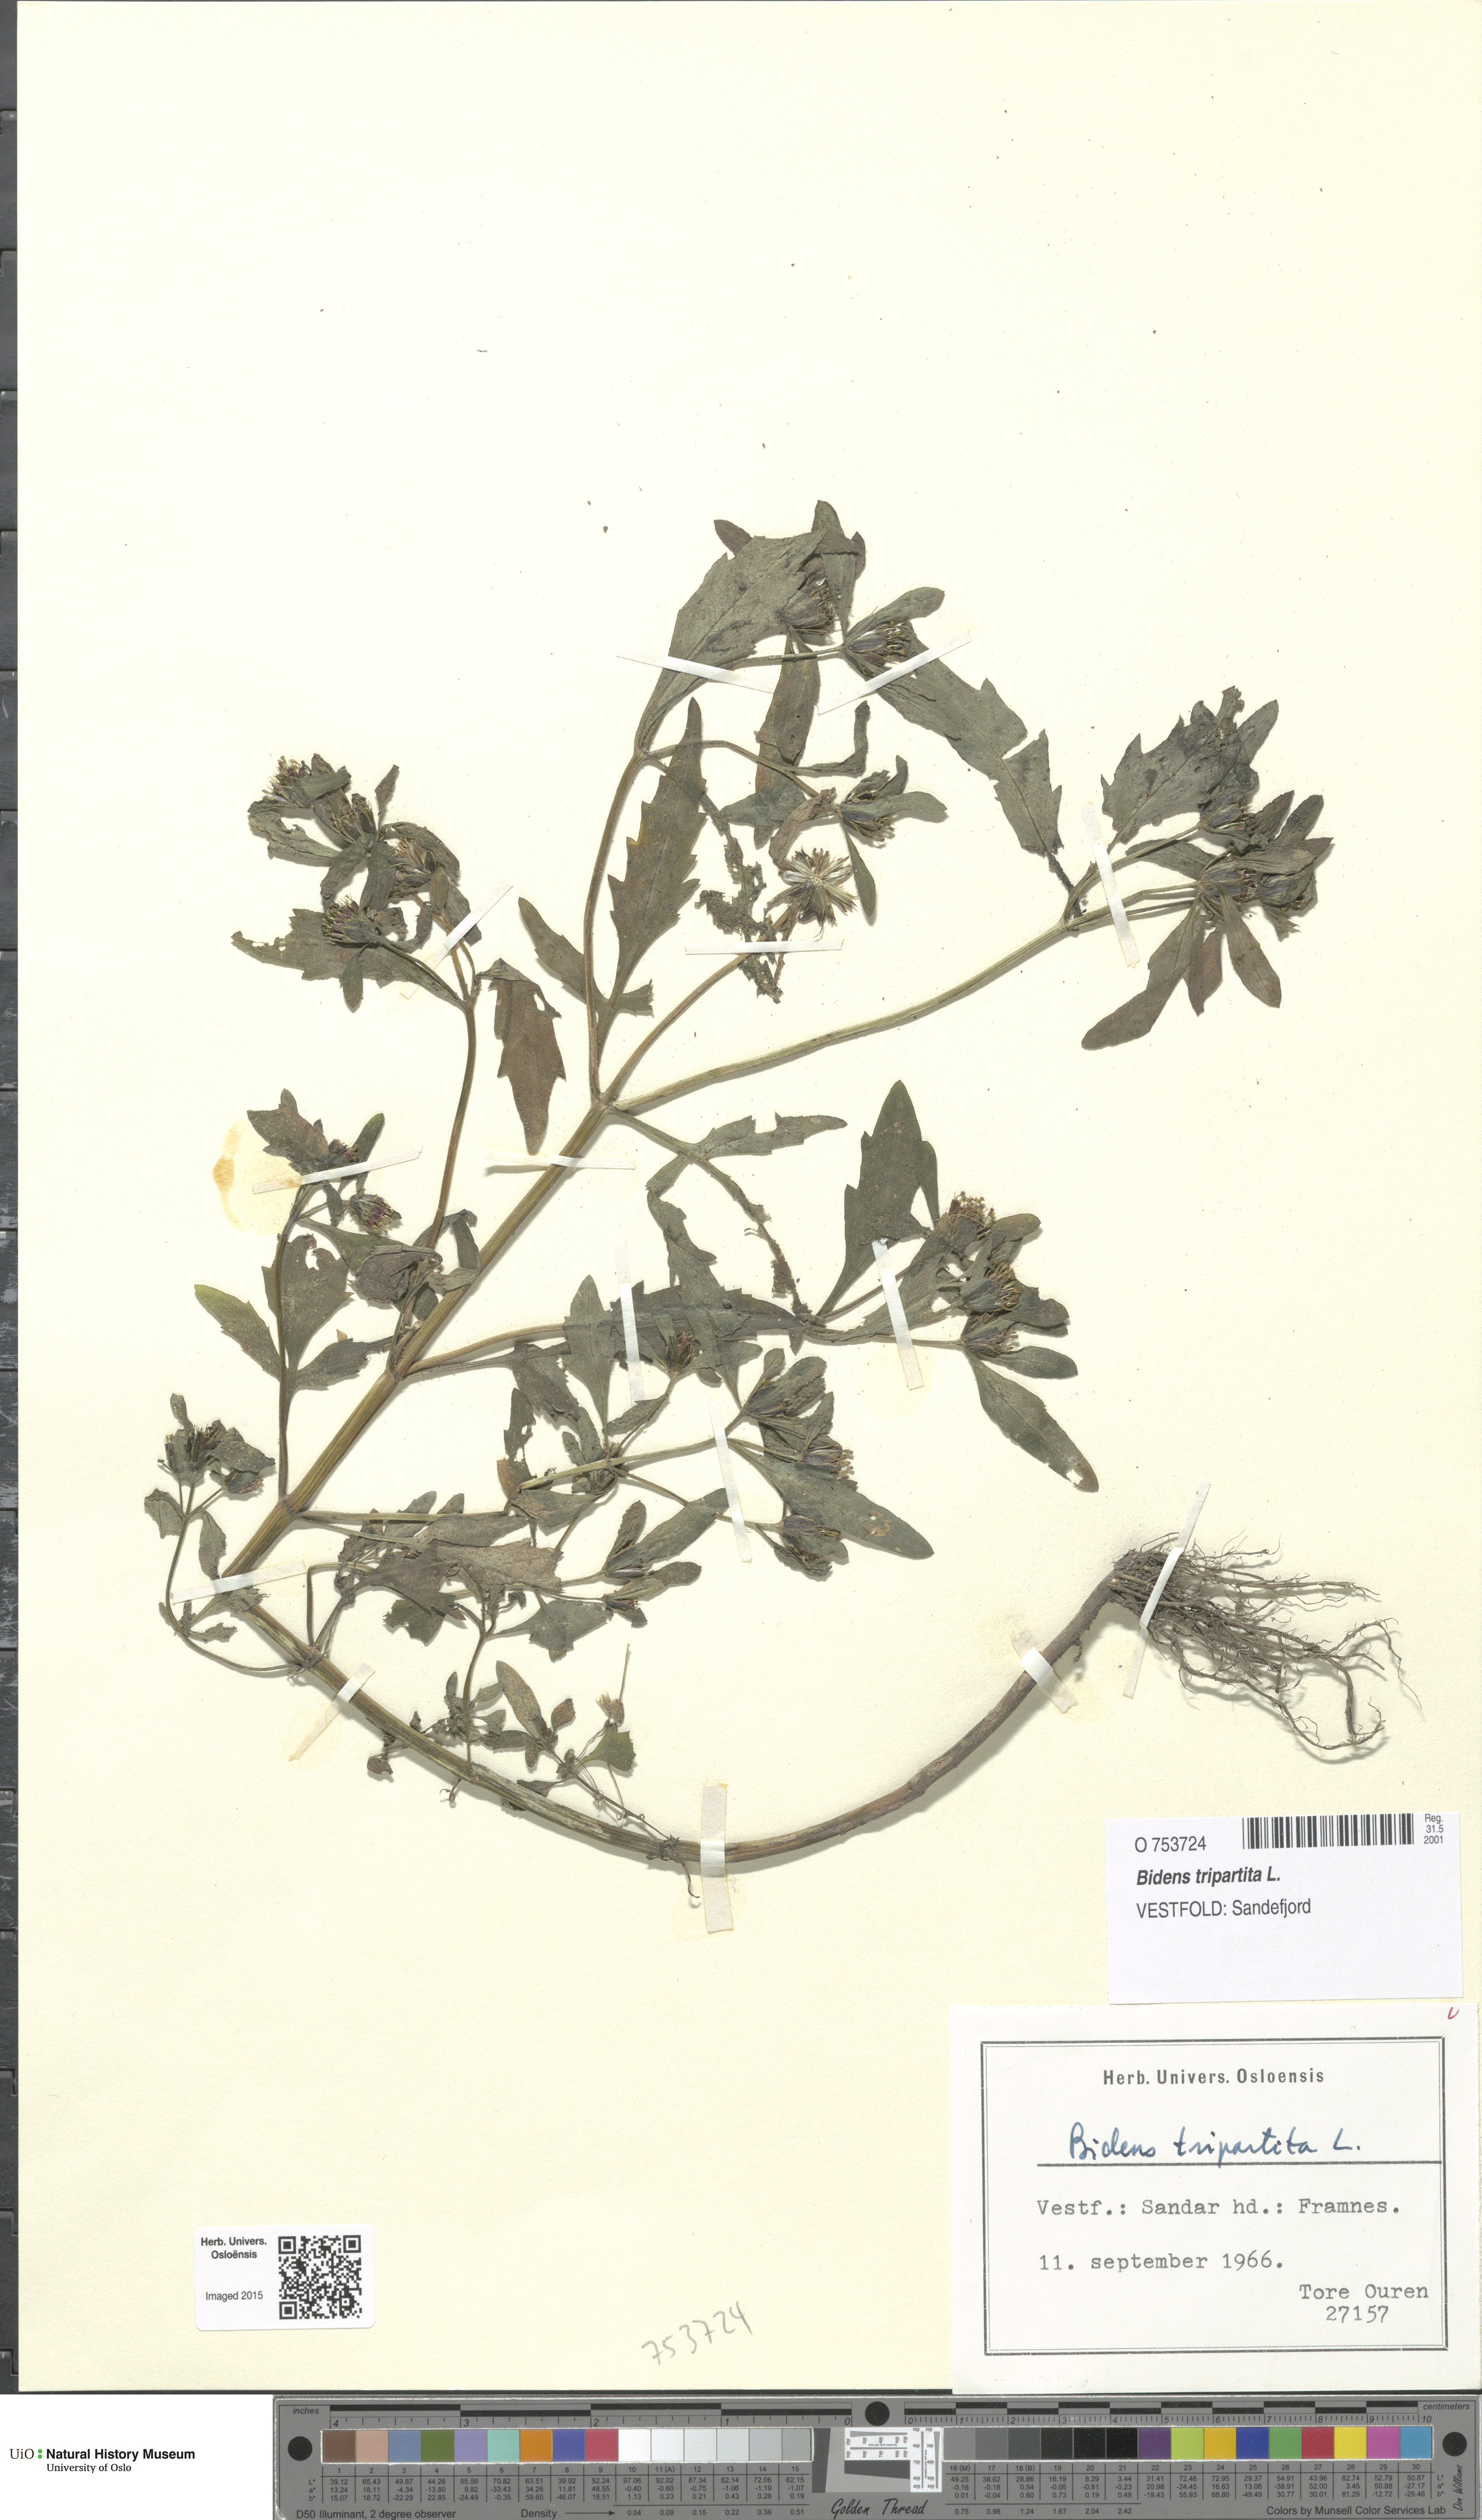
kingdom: Plantae
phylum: Tracheophyta
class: Magnoliopsida
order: Asterales
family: Asteraceae
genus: Bidens
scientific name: Bidens tripartita
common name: Trifid bur-marigold
